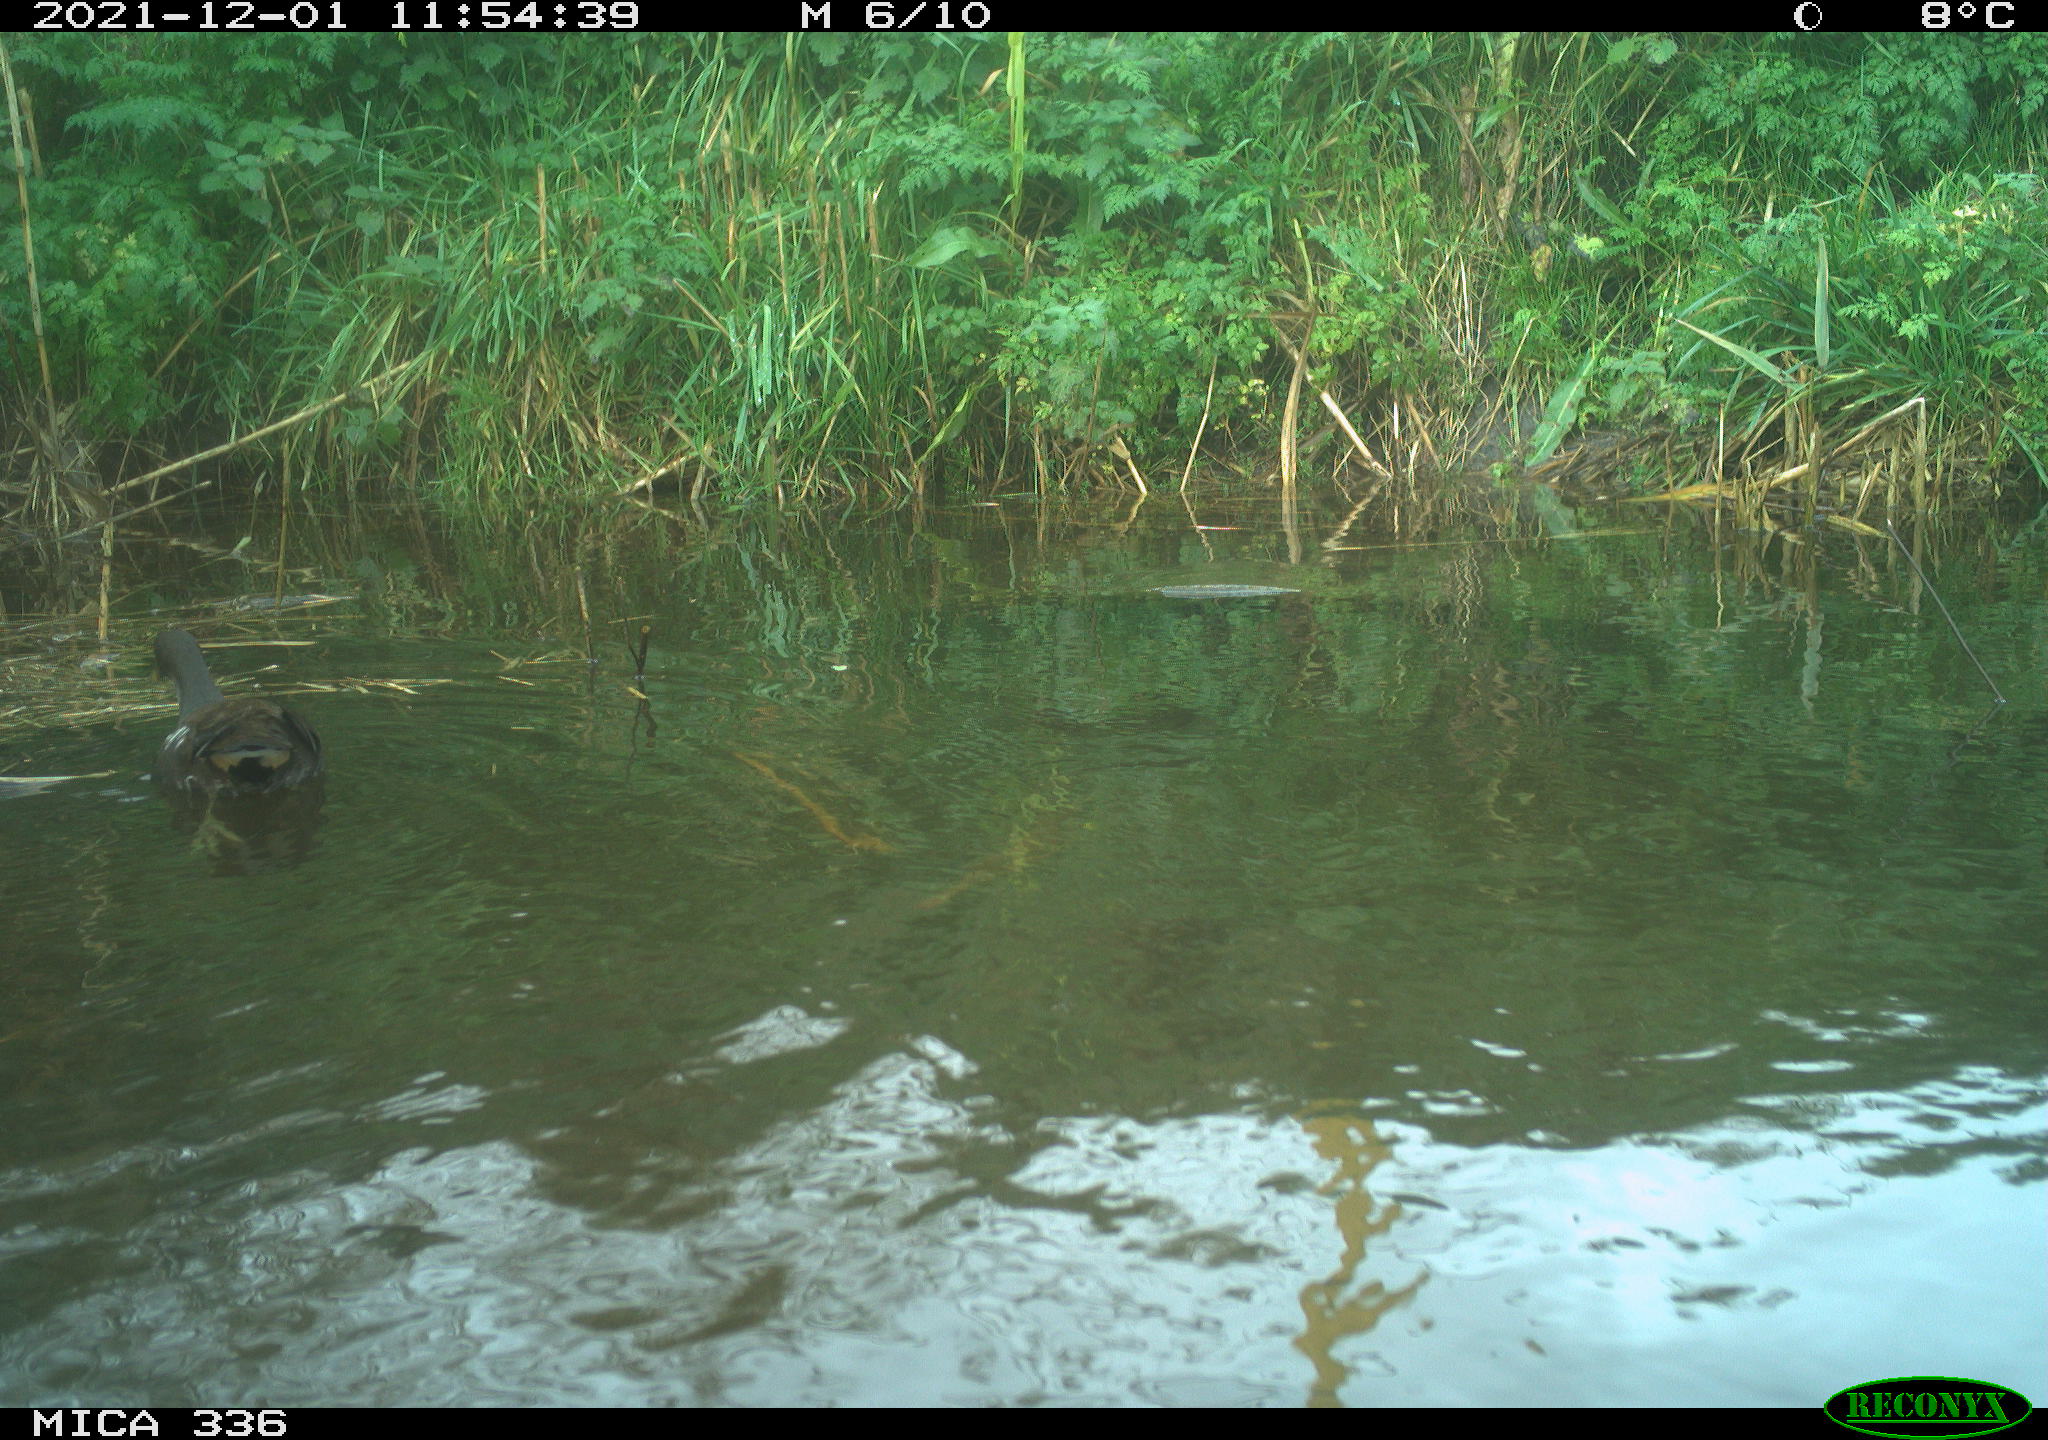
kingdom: Animalia
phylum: Chordata
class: Aves
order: Gruiformes
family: Rallidae
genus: Gallinula
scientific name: Gallinula chloropus
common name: Common moorhen
